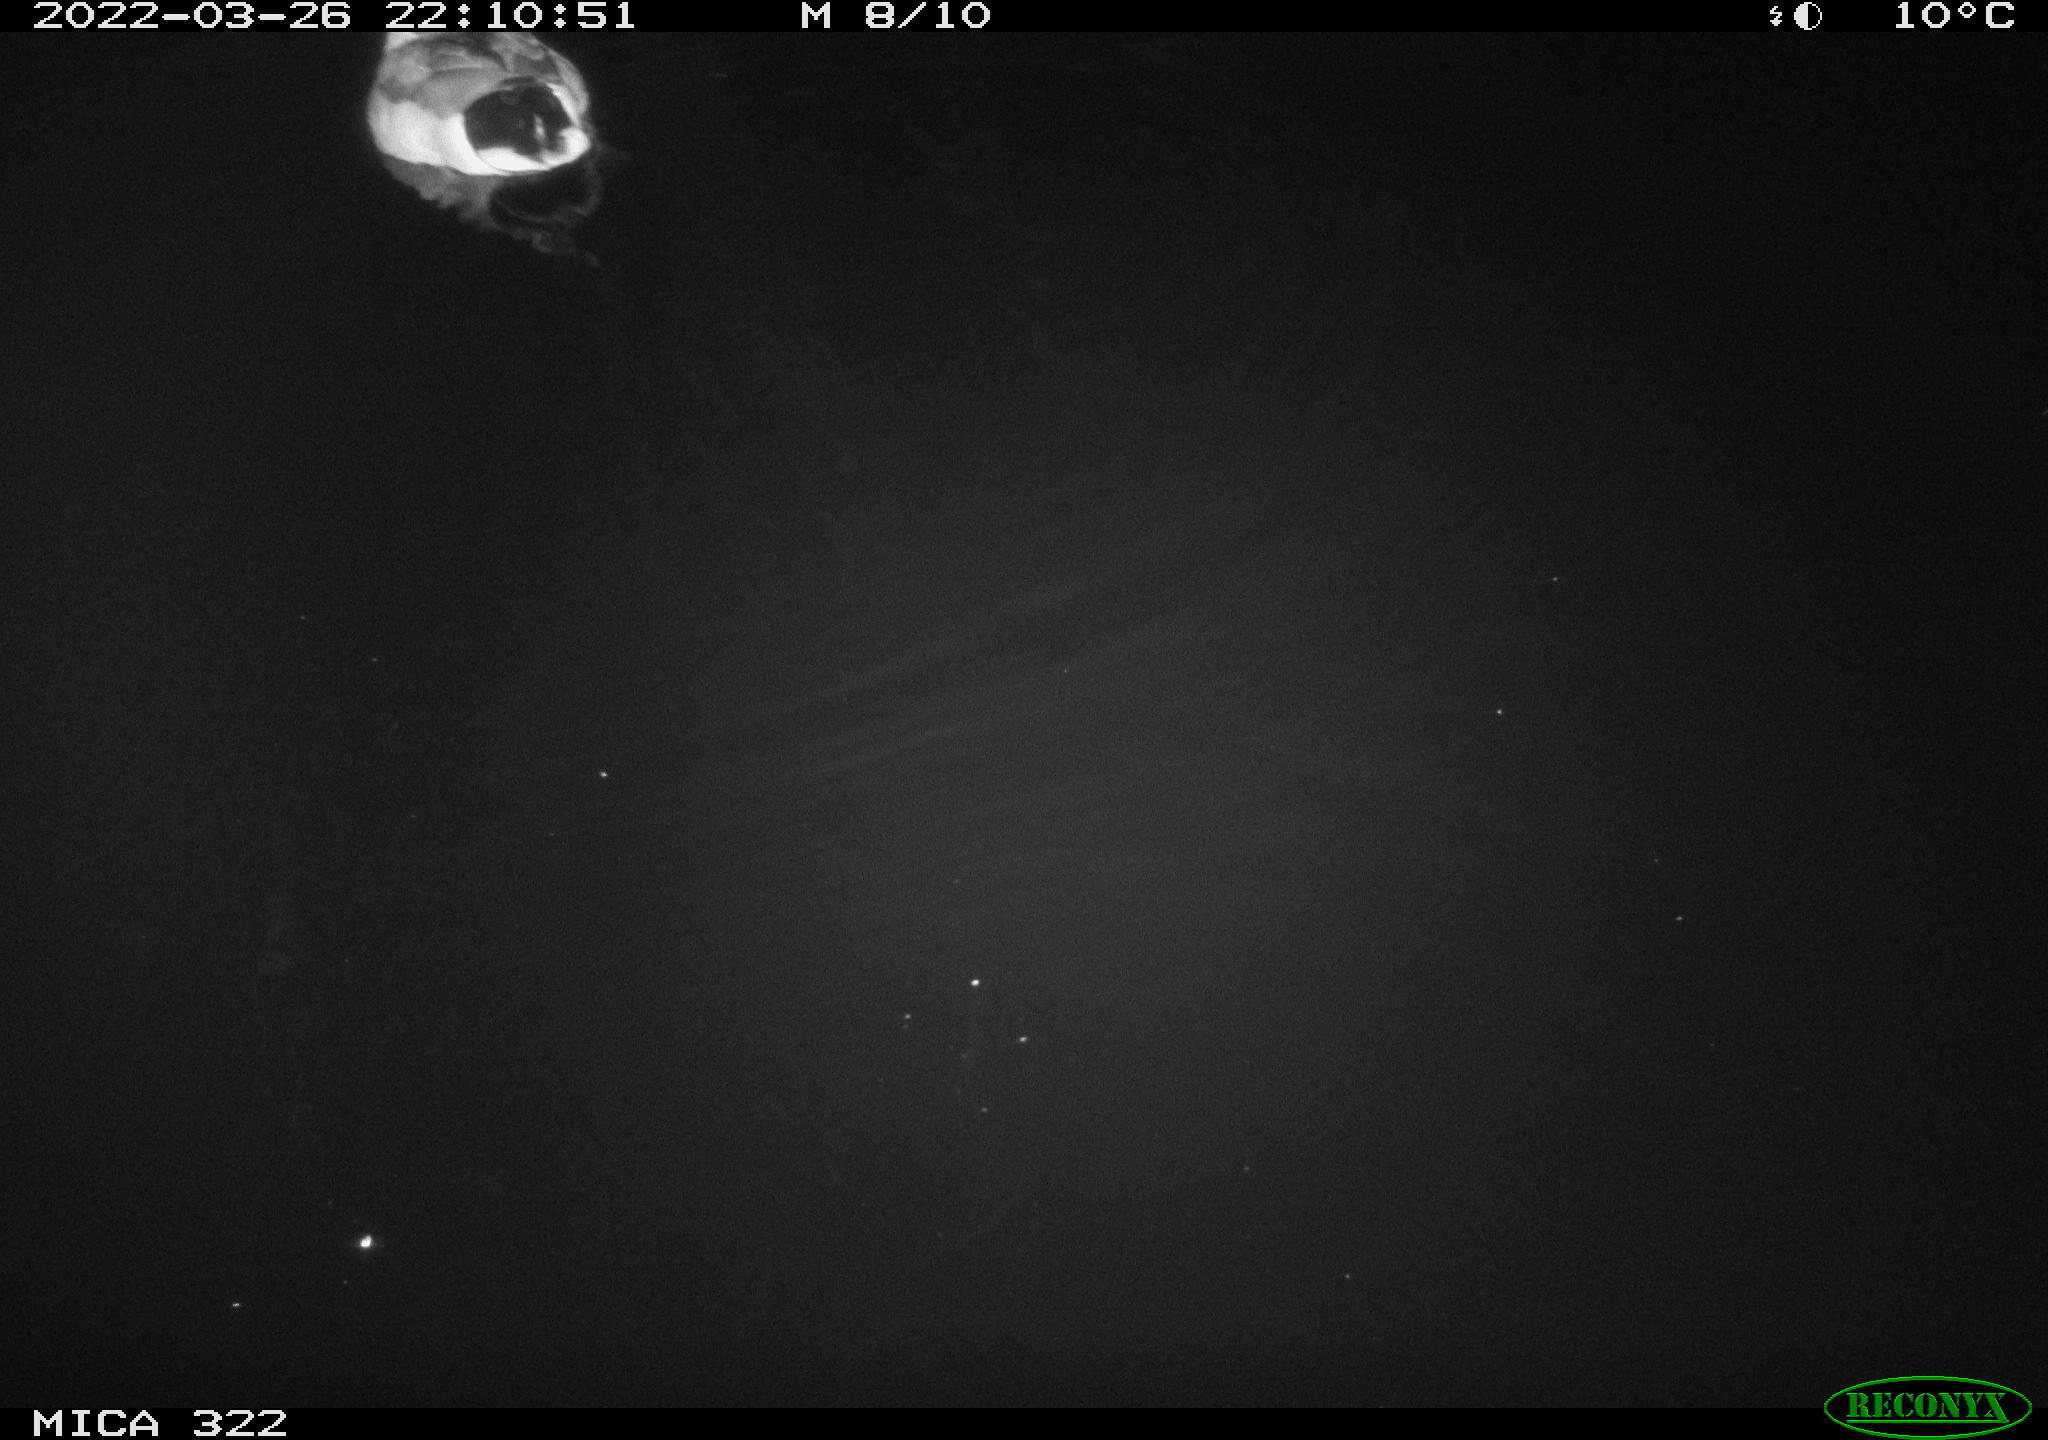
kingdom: Animalia
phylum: Chordata
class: Aves
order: Anseriformes
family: Anatidae
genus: Anas
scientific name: Anas platyrhynchos
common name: Mallard
